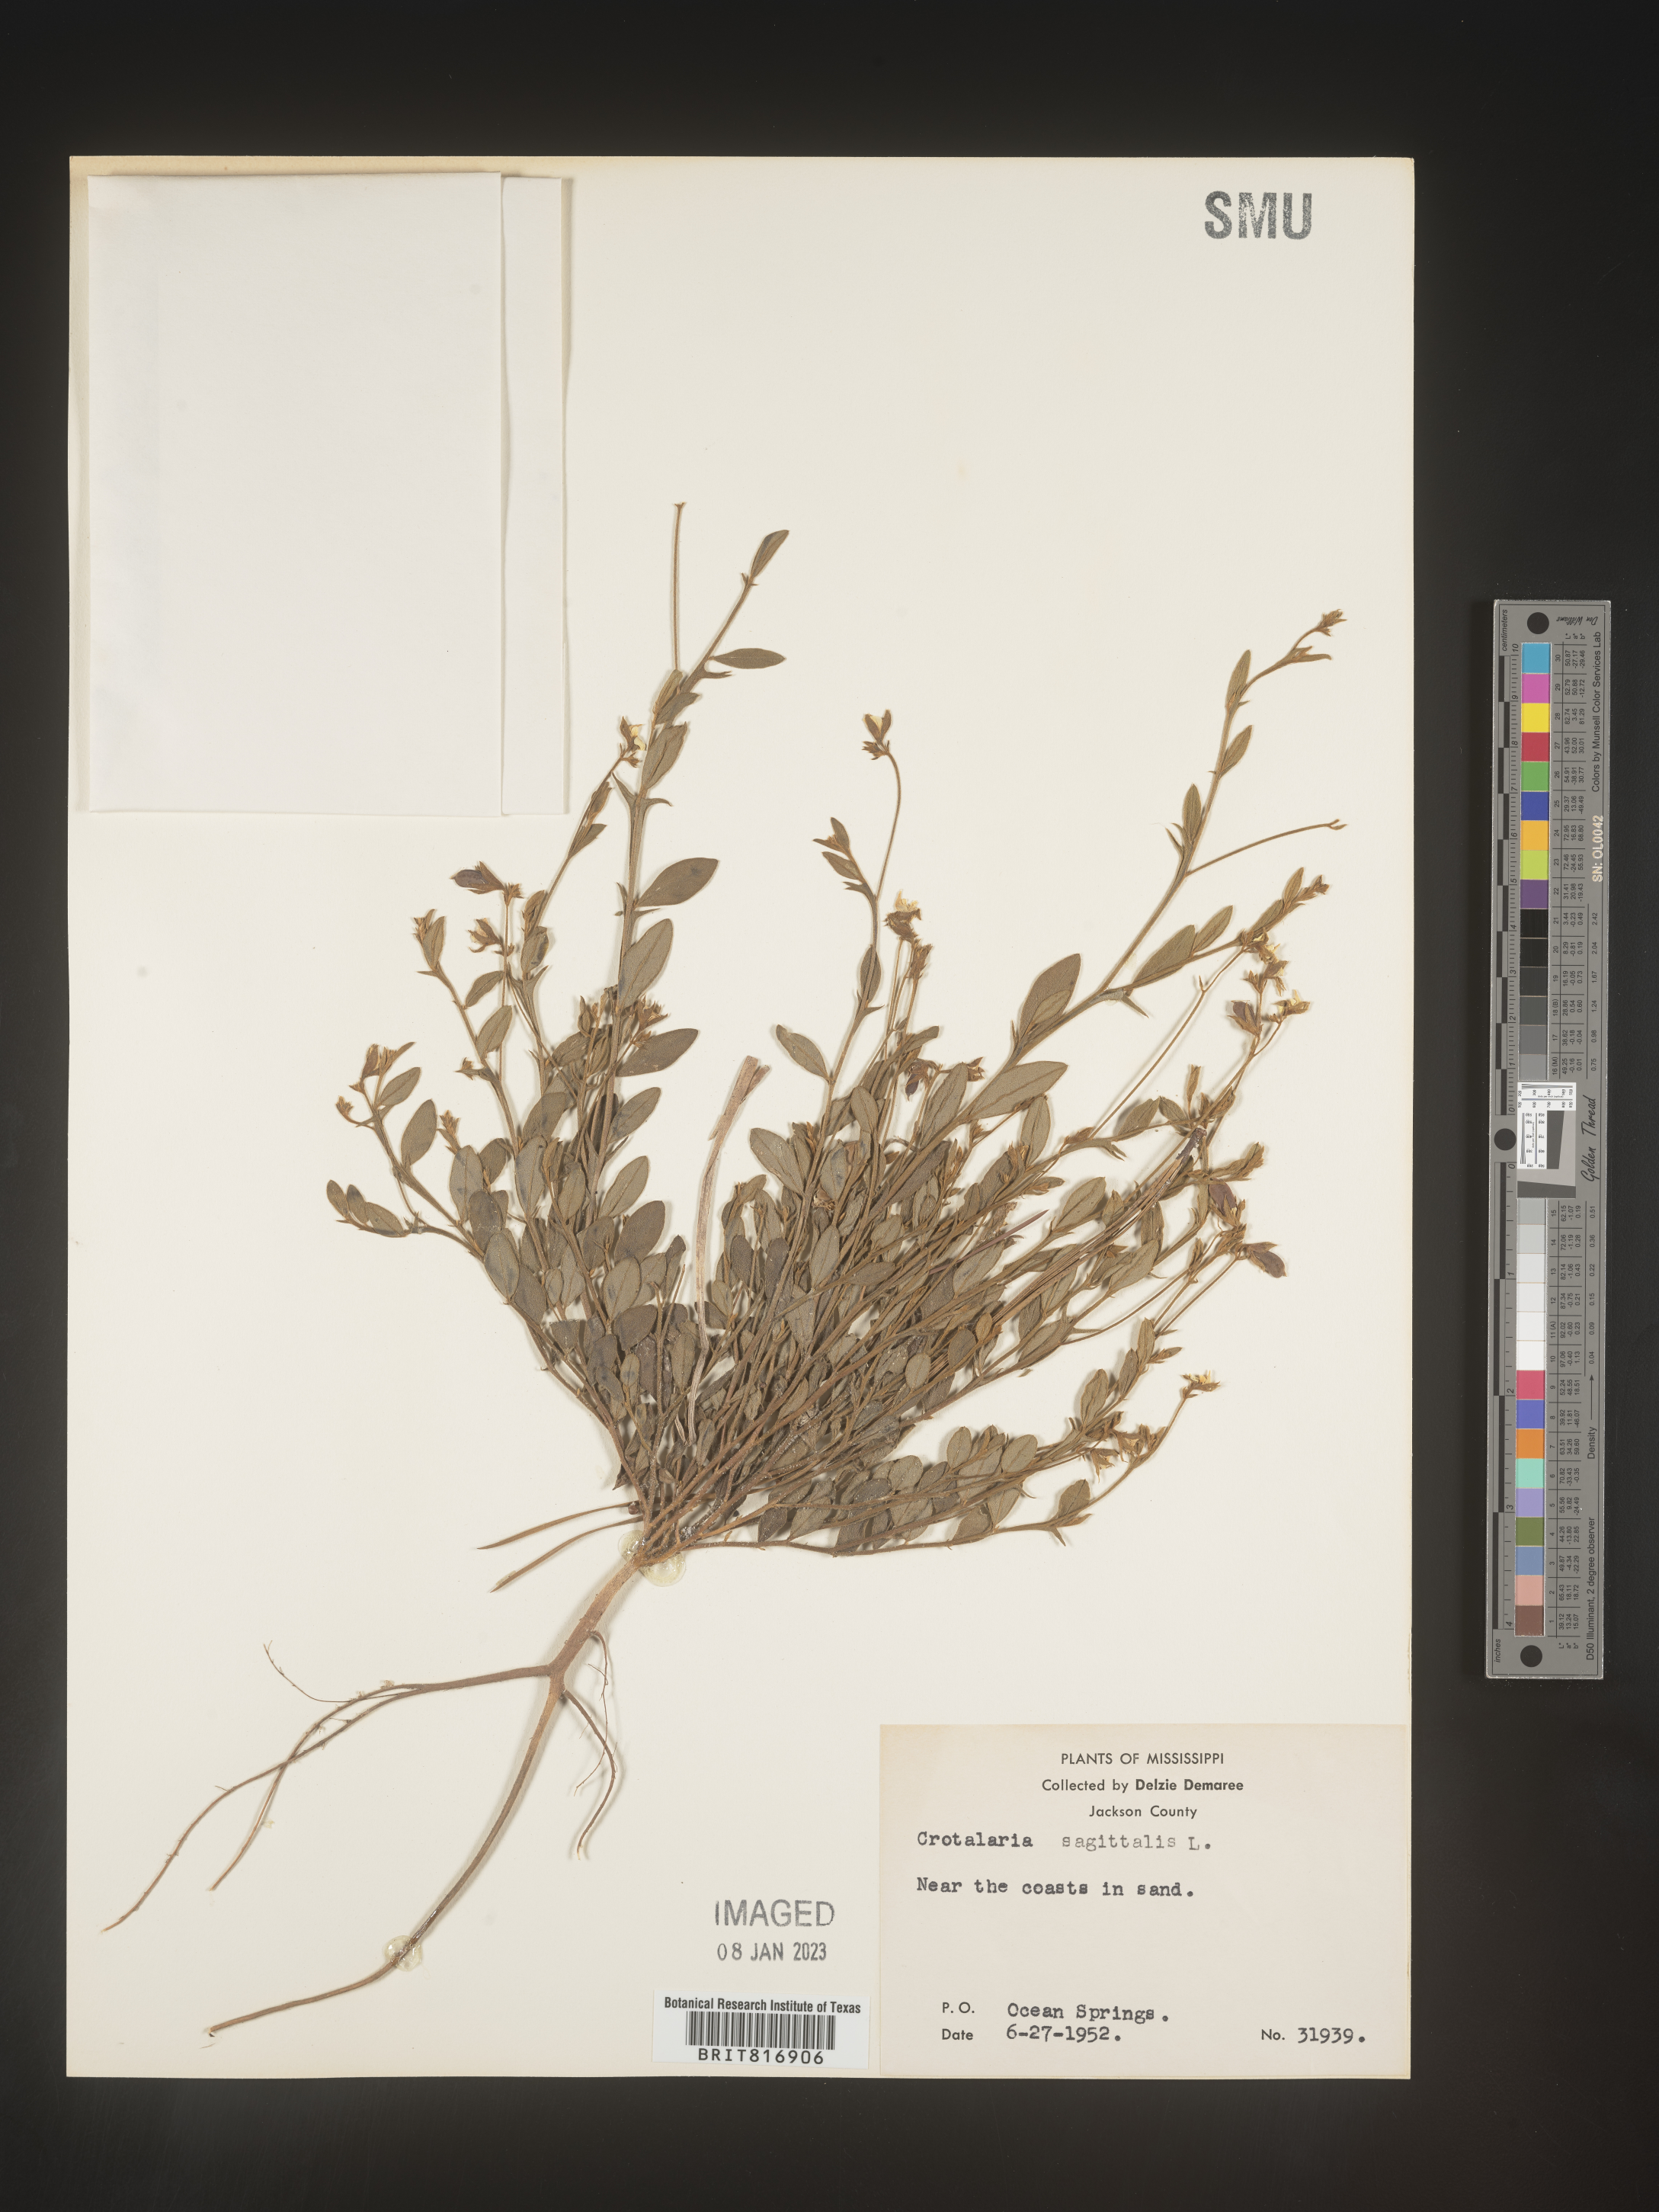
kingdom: Plantae
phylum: Tracheophyta
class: Magnoliopsida
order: Fabales
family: Fabaceae
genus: Crotalaria
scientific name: Crotalaria sagittalis
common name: Arrowhead rattlebox
